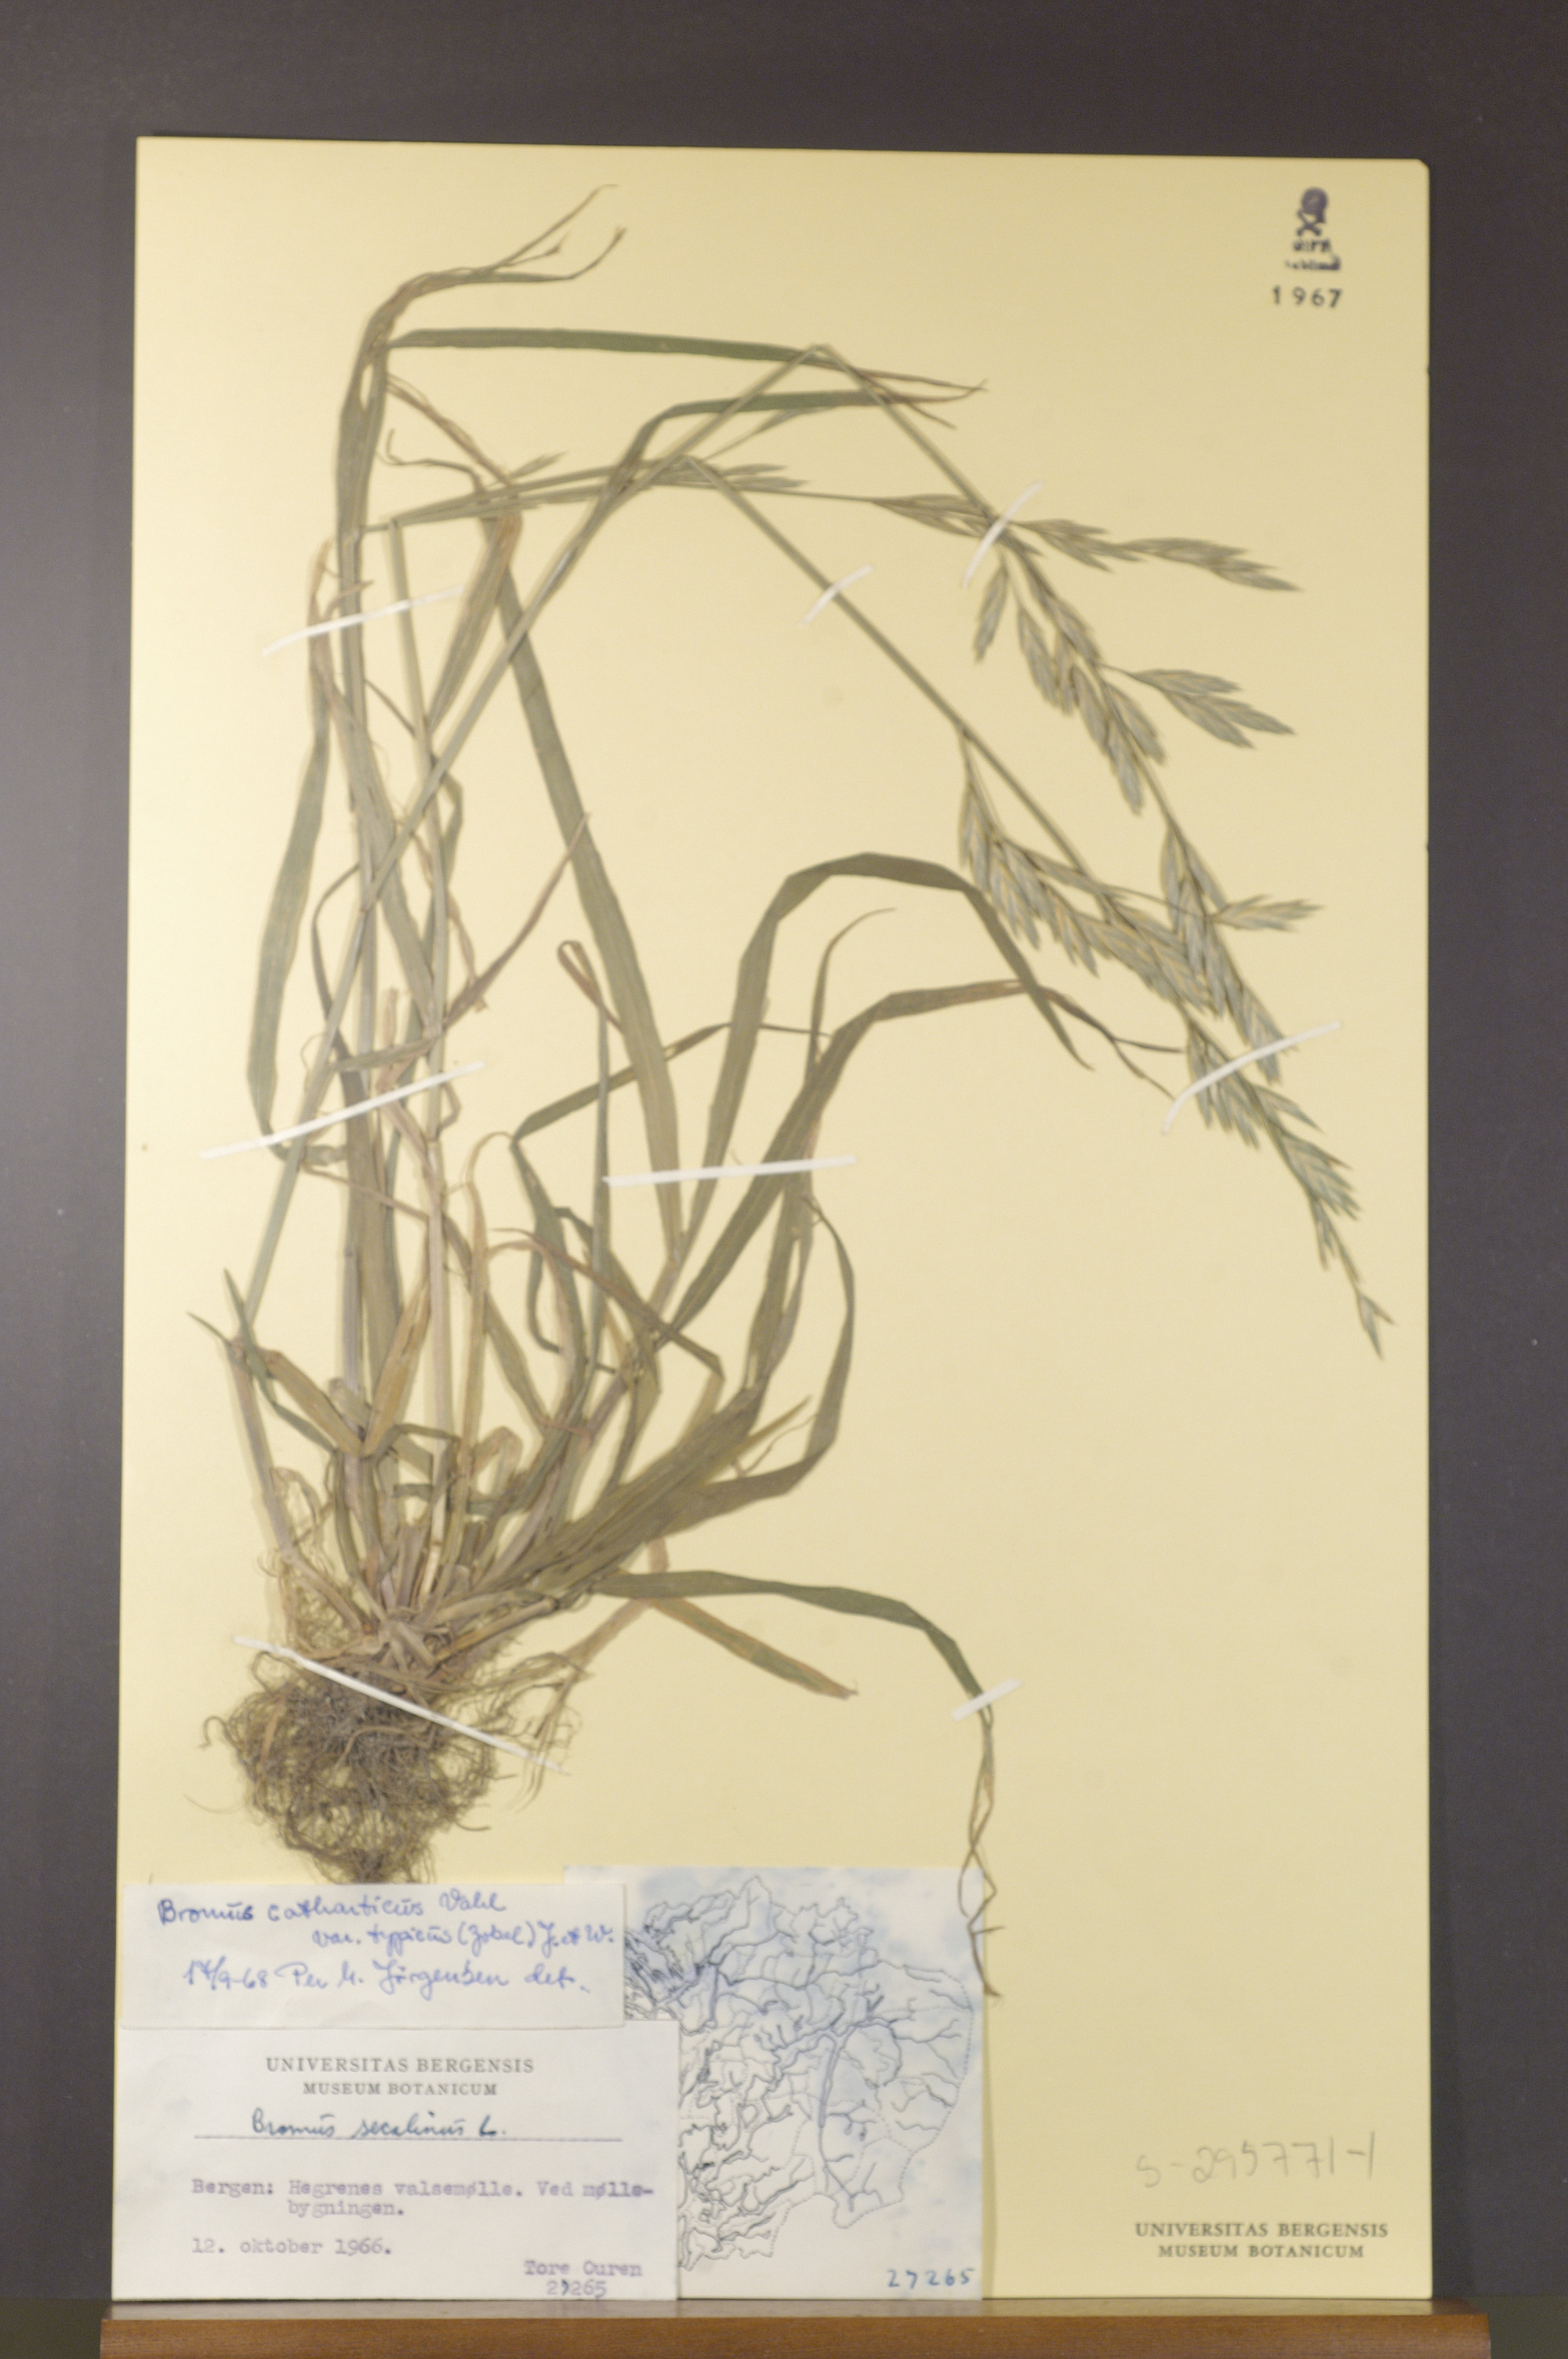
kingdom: Plantae
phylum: Tracheophyta
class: Liliopsida
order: Poales
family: Poaceae
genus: Bromus
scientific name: Bromus catharticus
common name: Rescuegrass
